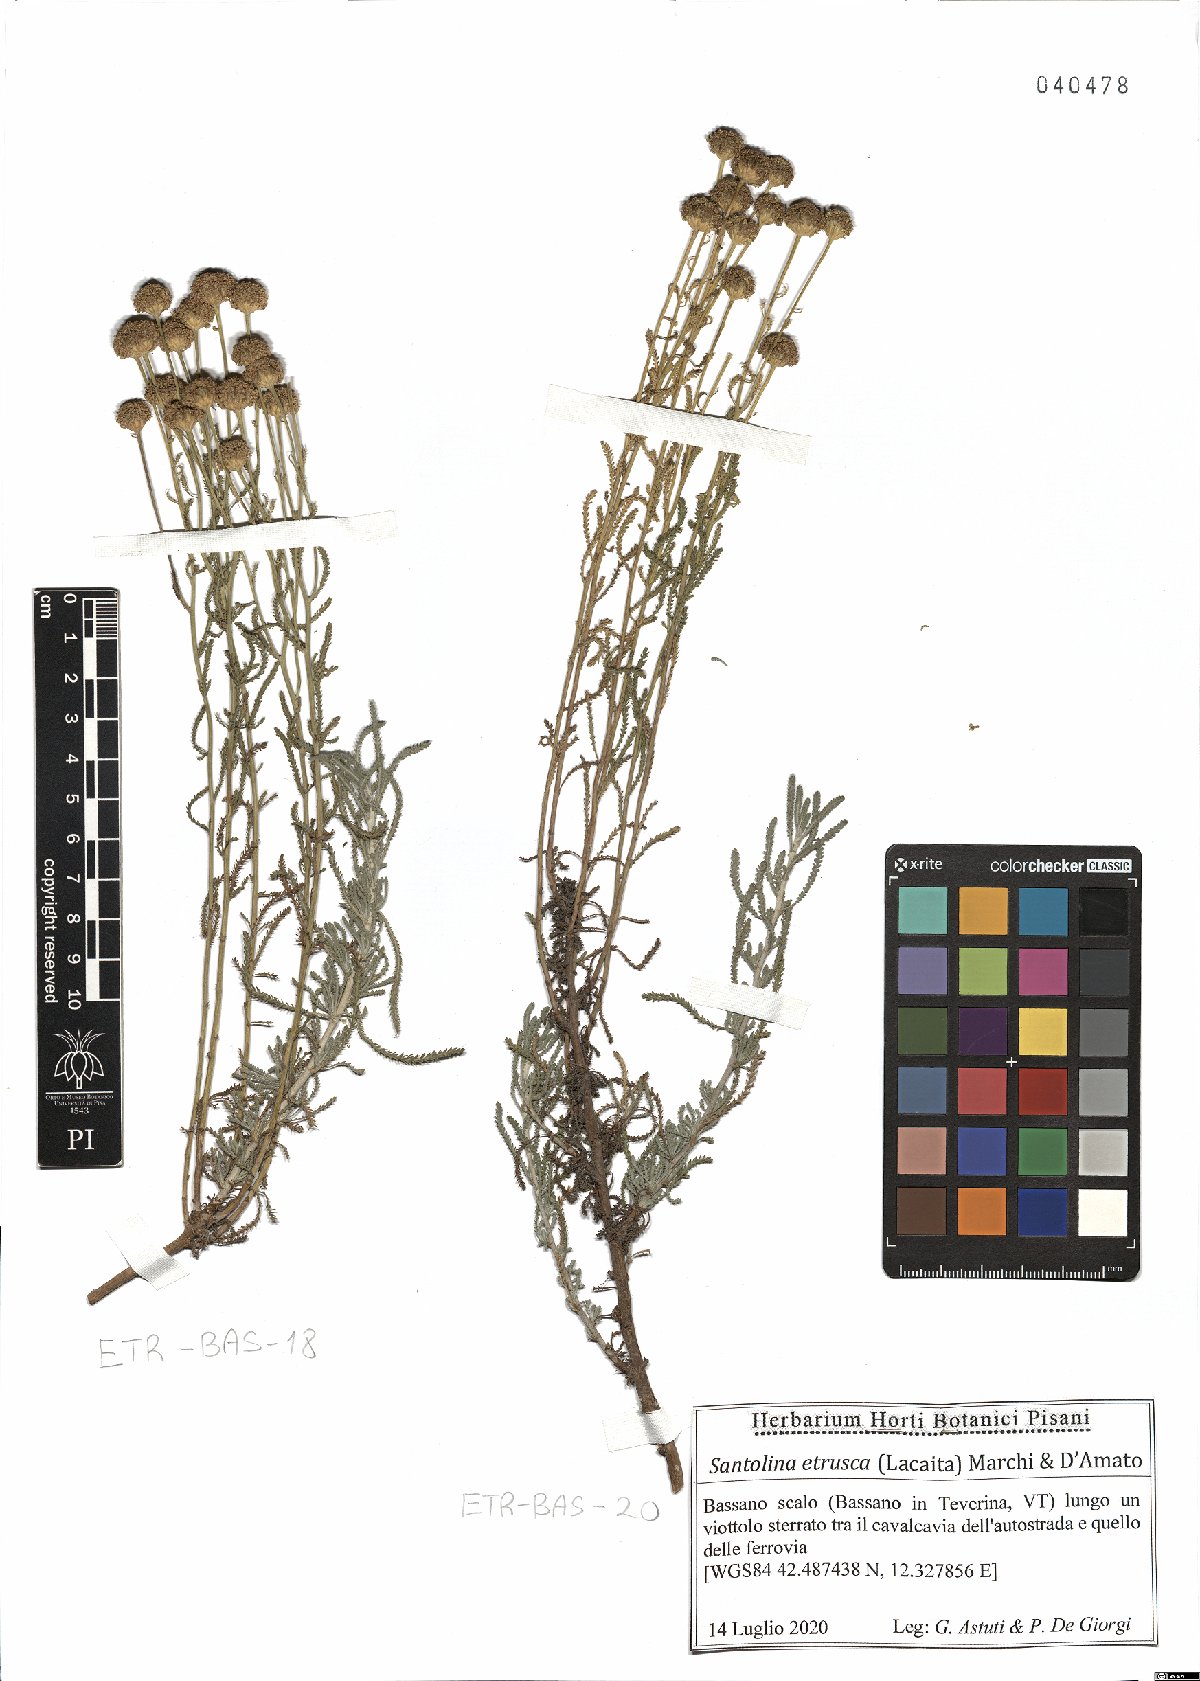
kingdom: Plantae
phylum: Tracheophyta
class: Magnoliopsida
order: Asterales
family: Asteraceae
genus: Santolina
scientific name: Santolina etrusca
